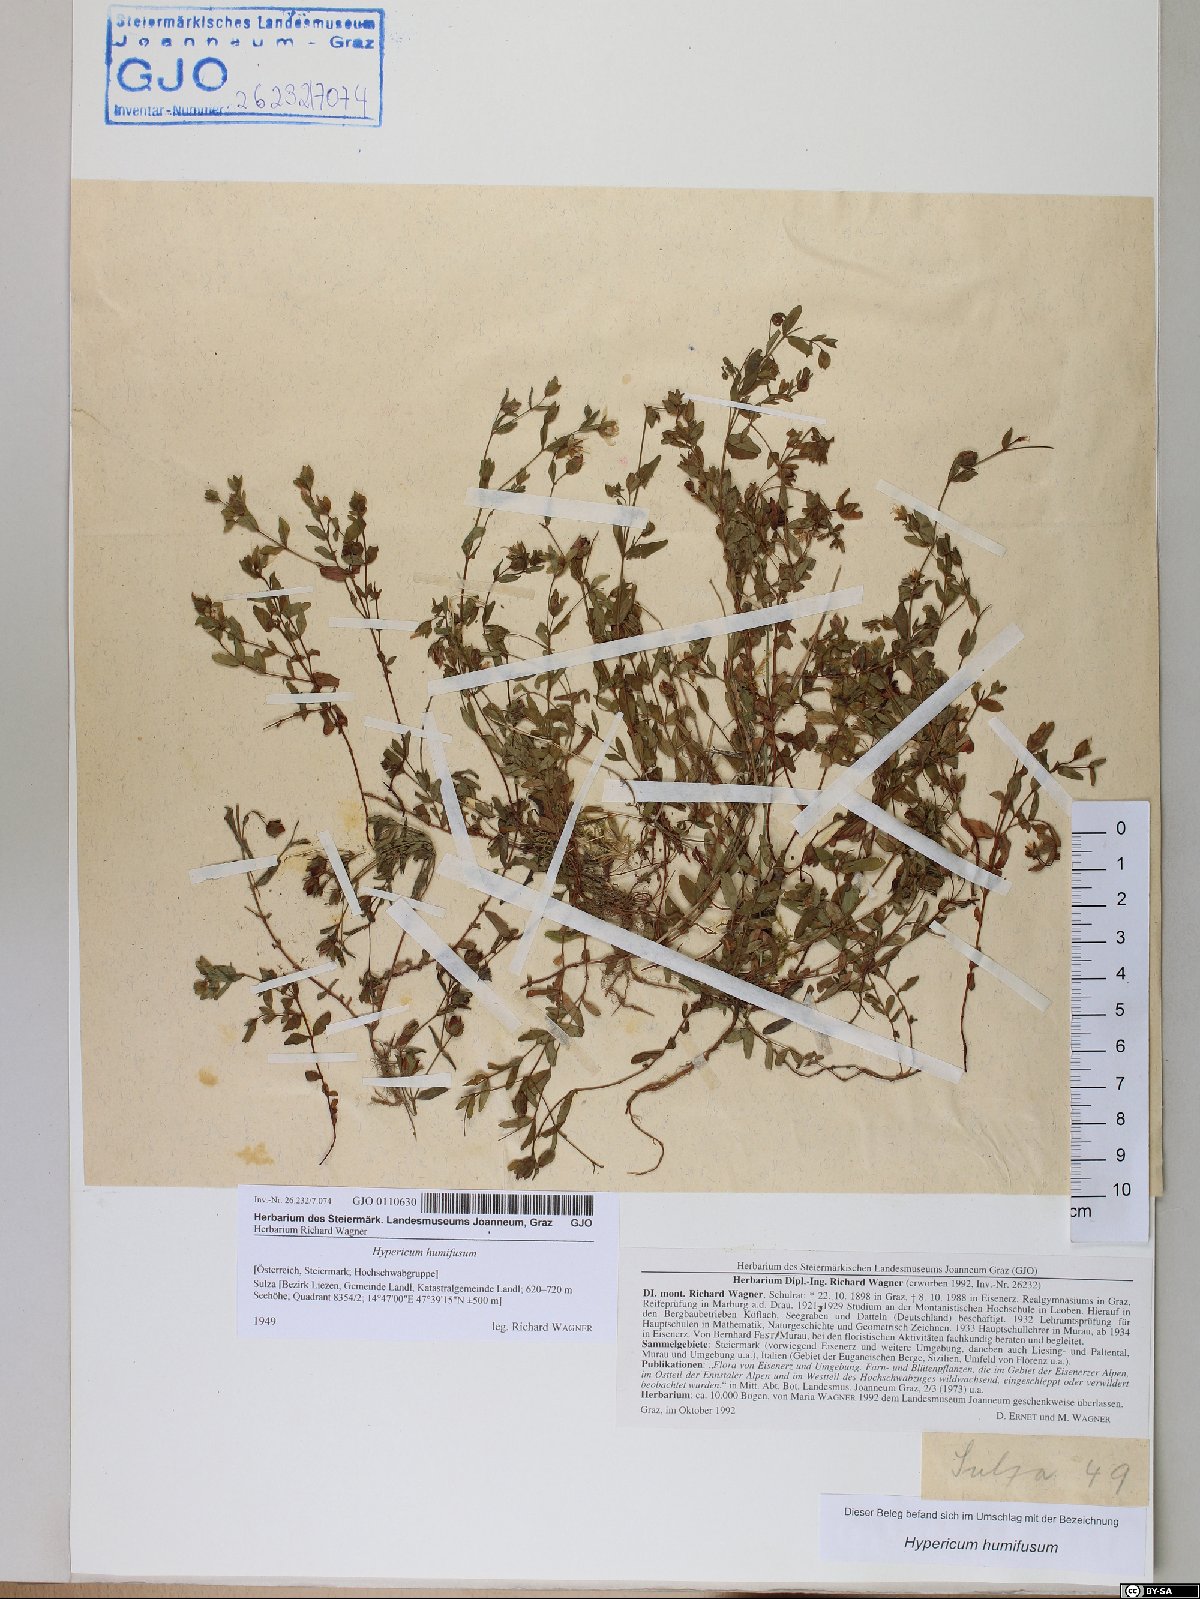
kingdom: Plantae
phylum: Tracheophyta
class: Magnoliopsida
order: Malpighiales
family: Hypericaceae
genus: Hypericum
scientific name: Hypericum humifusum
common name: Trailing st. john's-wort
